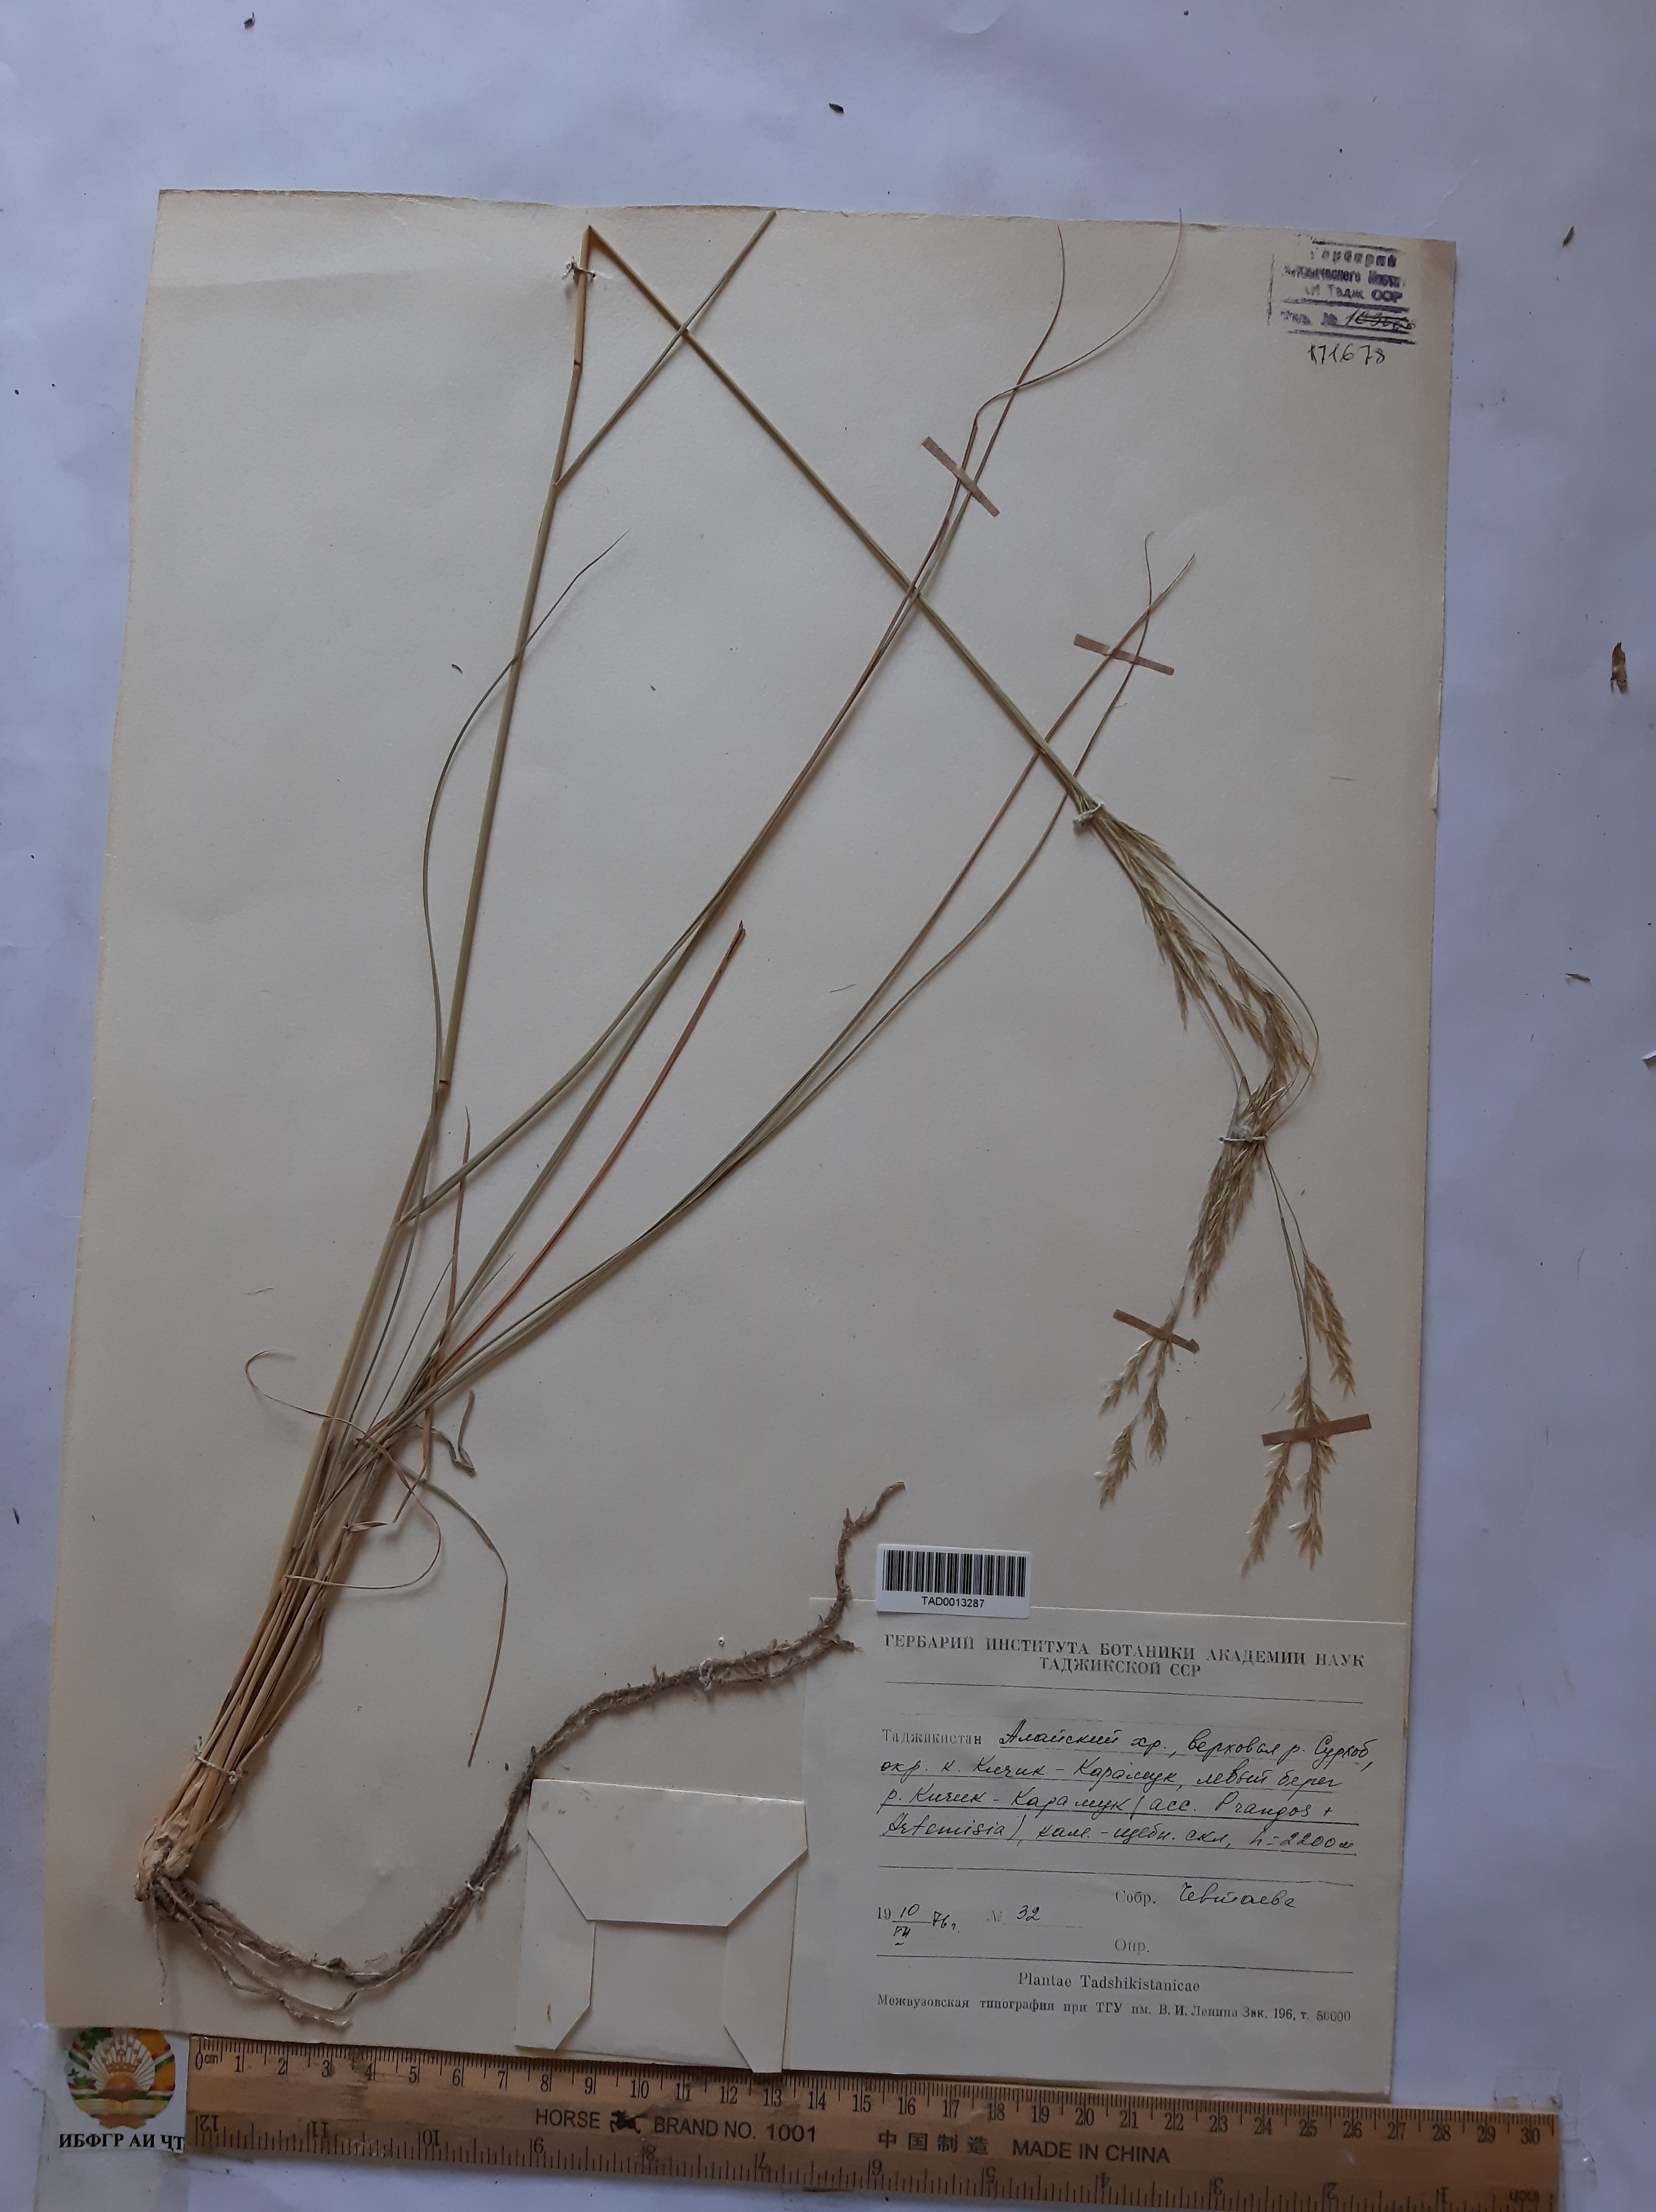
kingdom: Plantae
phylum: Tracheophyta
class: Liliopsida
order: Poales
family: Poaceae
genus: Stipa
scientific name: Stipa conferta
